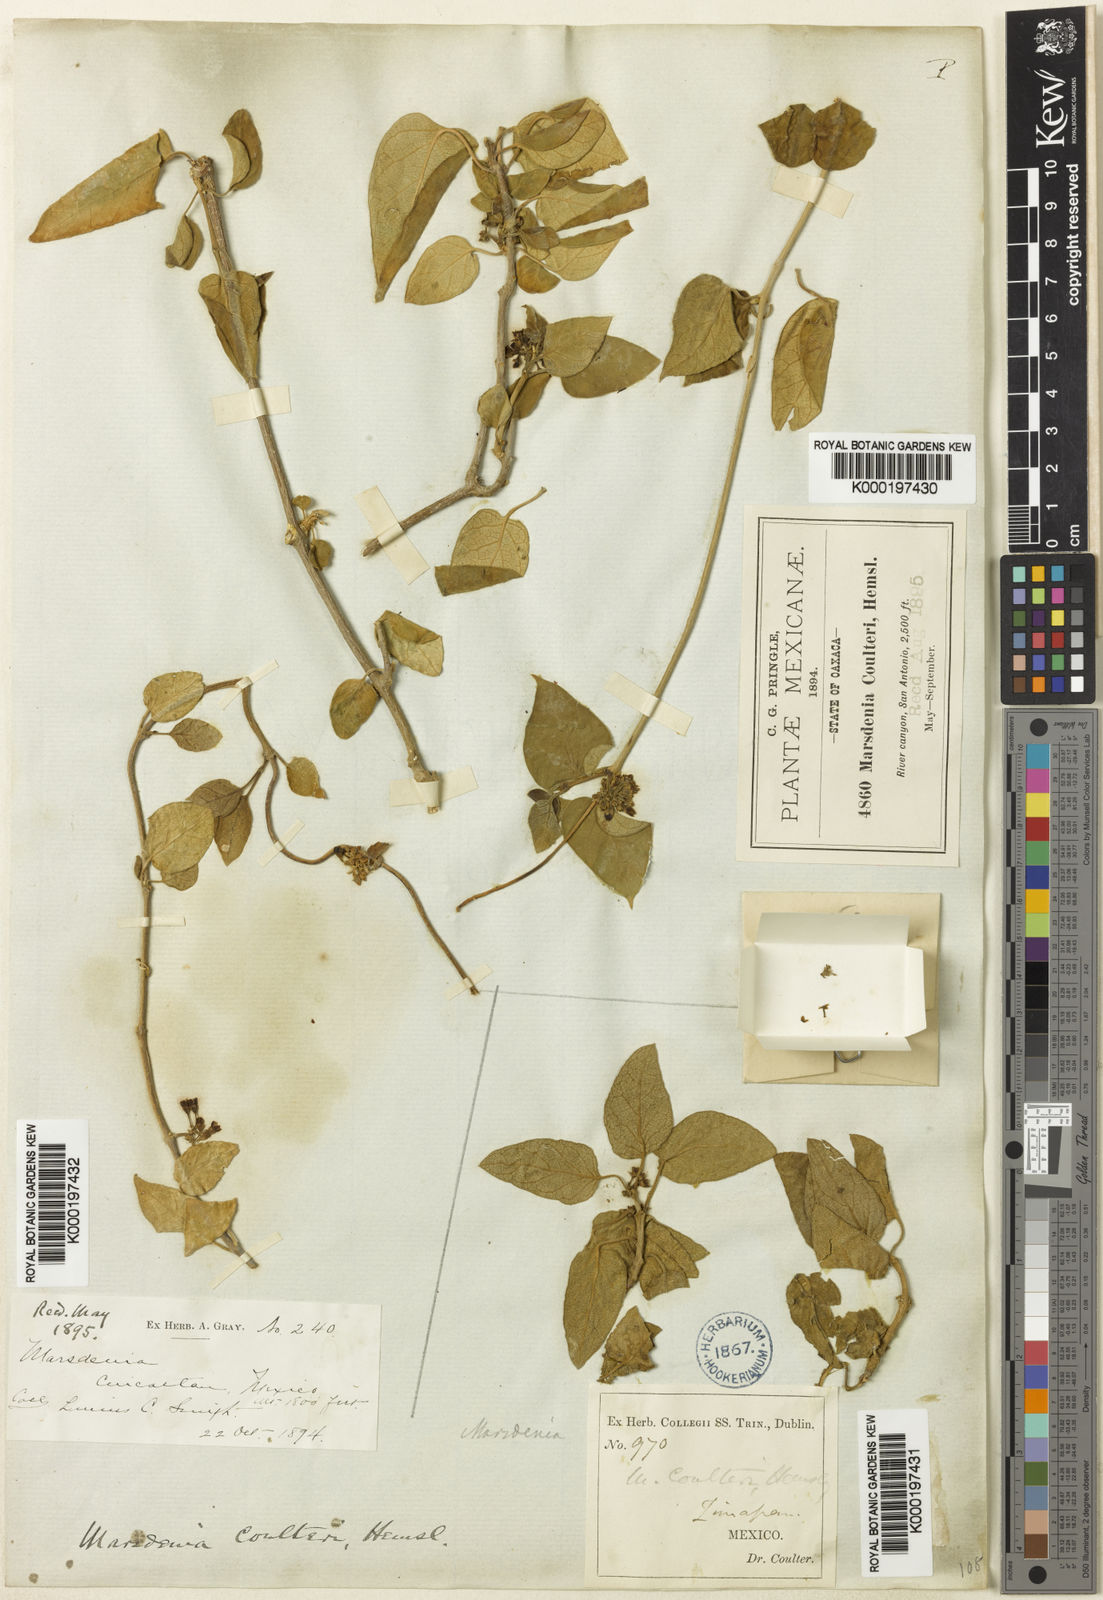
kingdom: Plantae
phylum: Tracheophyta
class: Magnoliopsida
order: Gentianales
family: Apocynaceae
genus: Ruehssia
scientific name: Ruehssia coulteri
